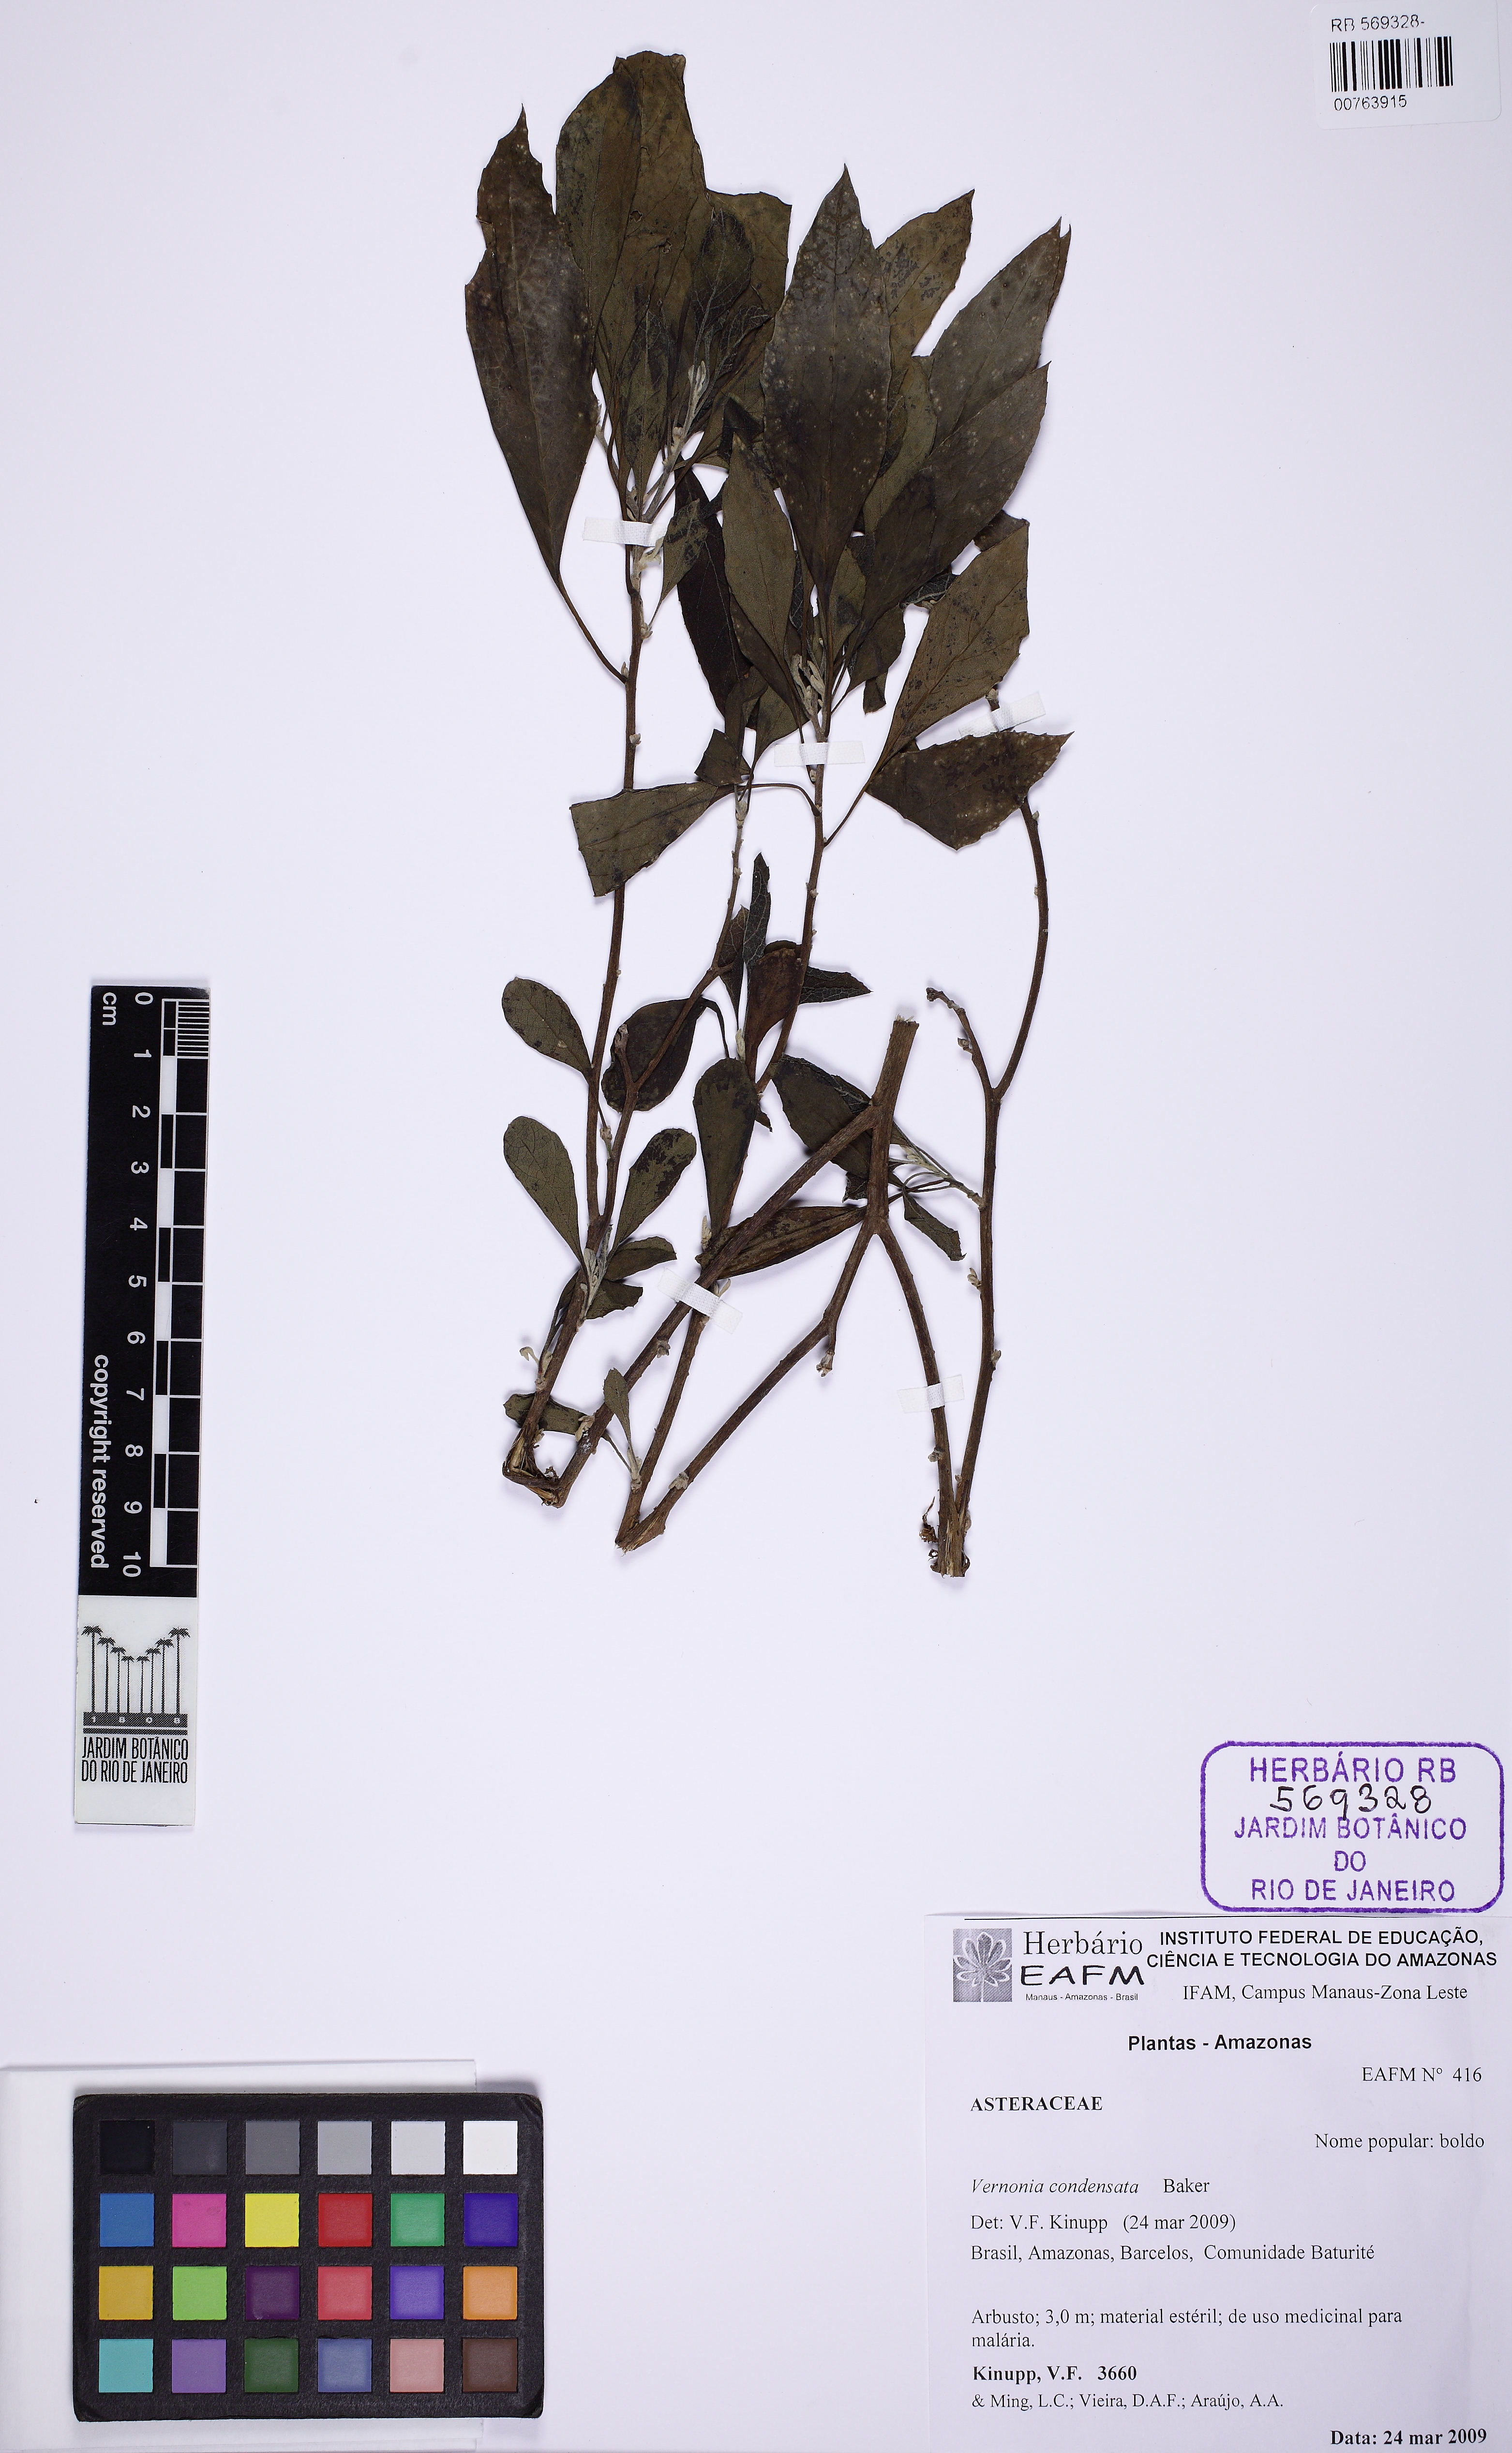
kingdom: Plantae
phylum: Tracheophyta
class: Magnoliopsida
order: Asterales
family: Asteraceae
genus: Gymnanthemum
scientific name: Gymnanthemum amygdalinum
